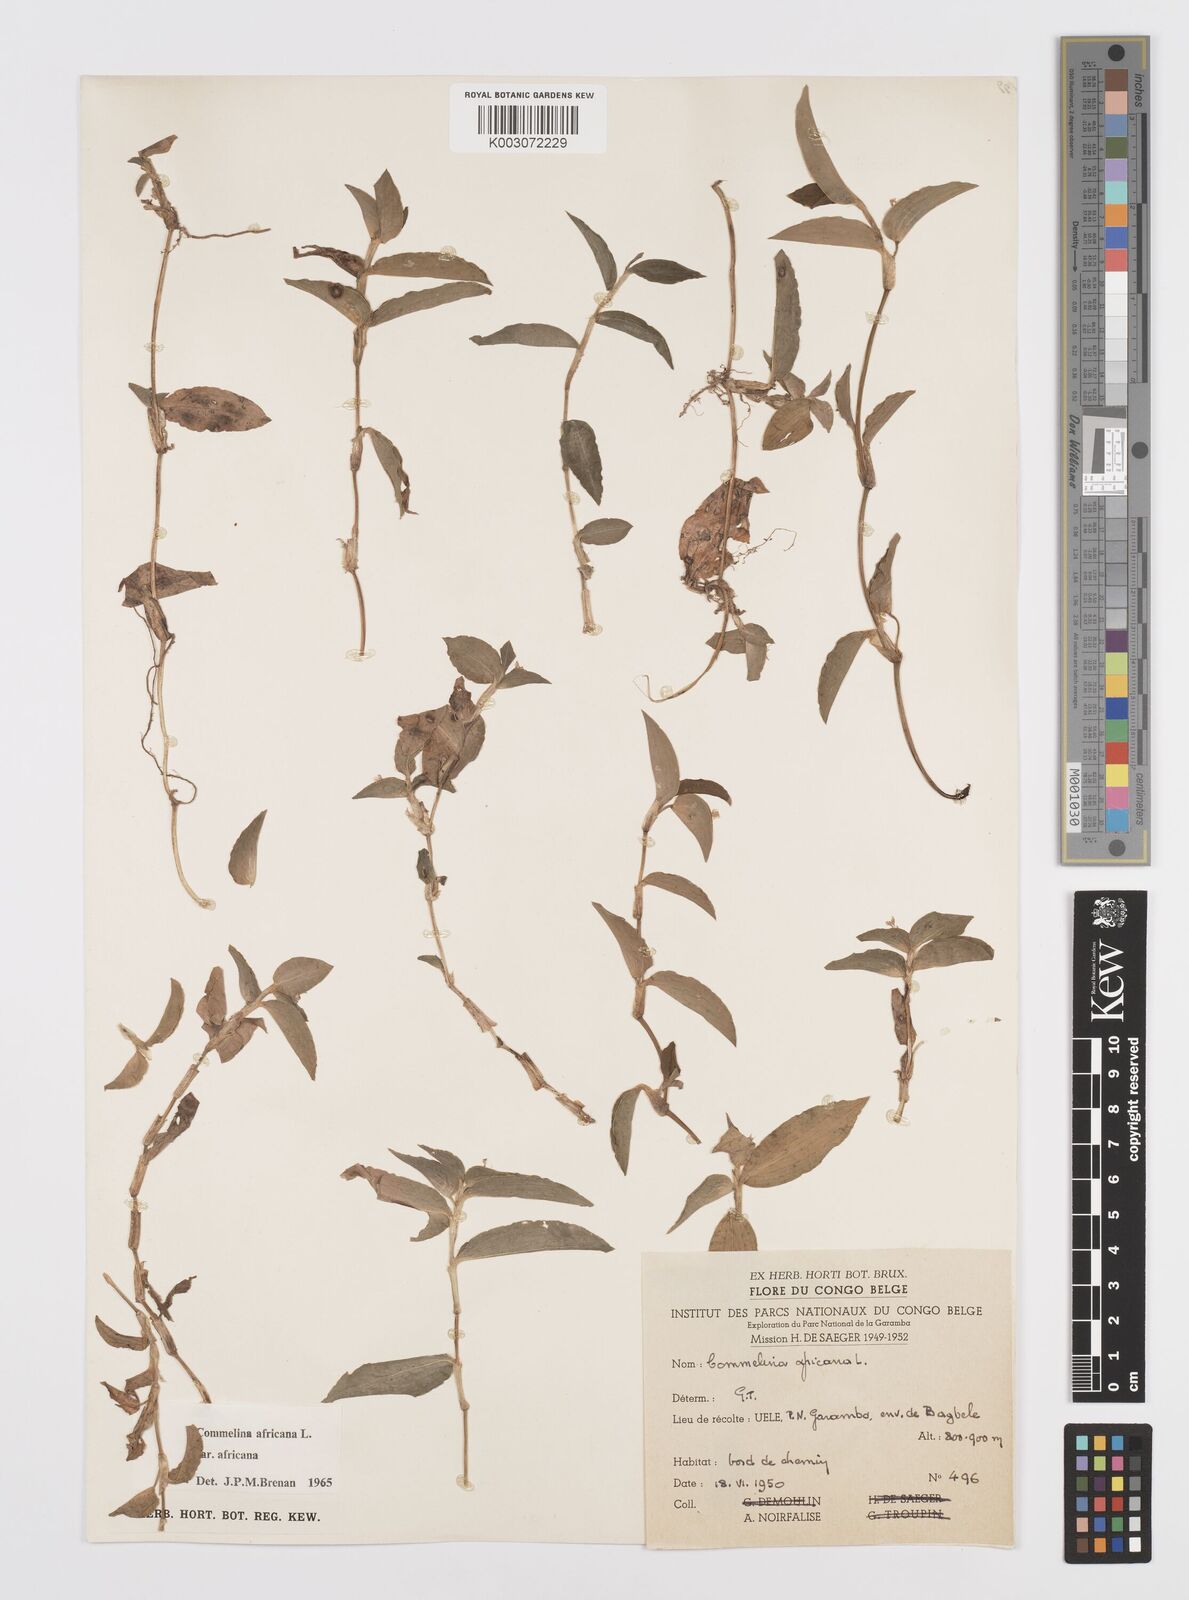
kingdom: Plantae
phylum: Tracheophyta
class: Liliopsida
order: Commelinales
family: Commelinaceae
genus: Commelina
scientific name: Commelina africana
